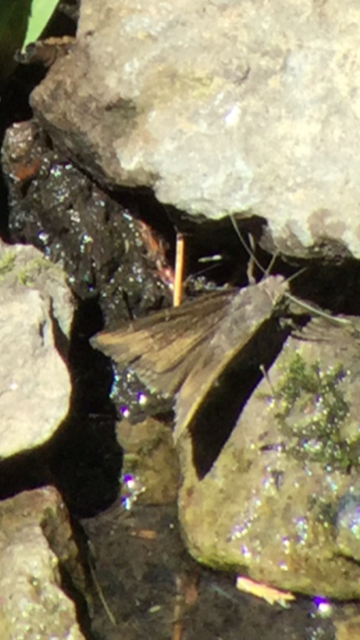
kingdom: Animalia
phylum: Arthropoda
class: Insecta
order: Lepidoptera
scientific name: Lepidoptera
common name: Butterflies
